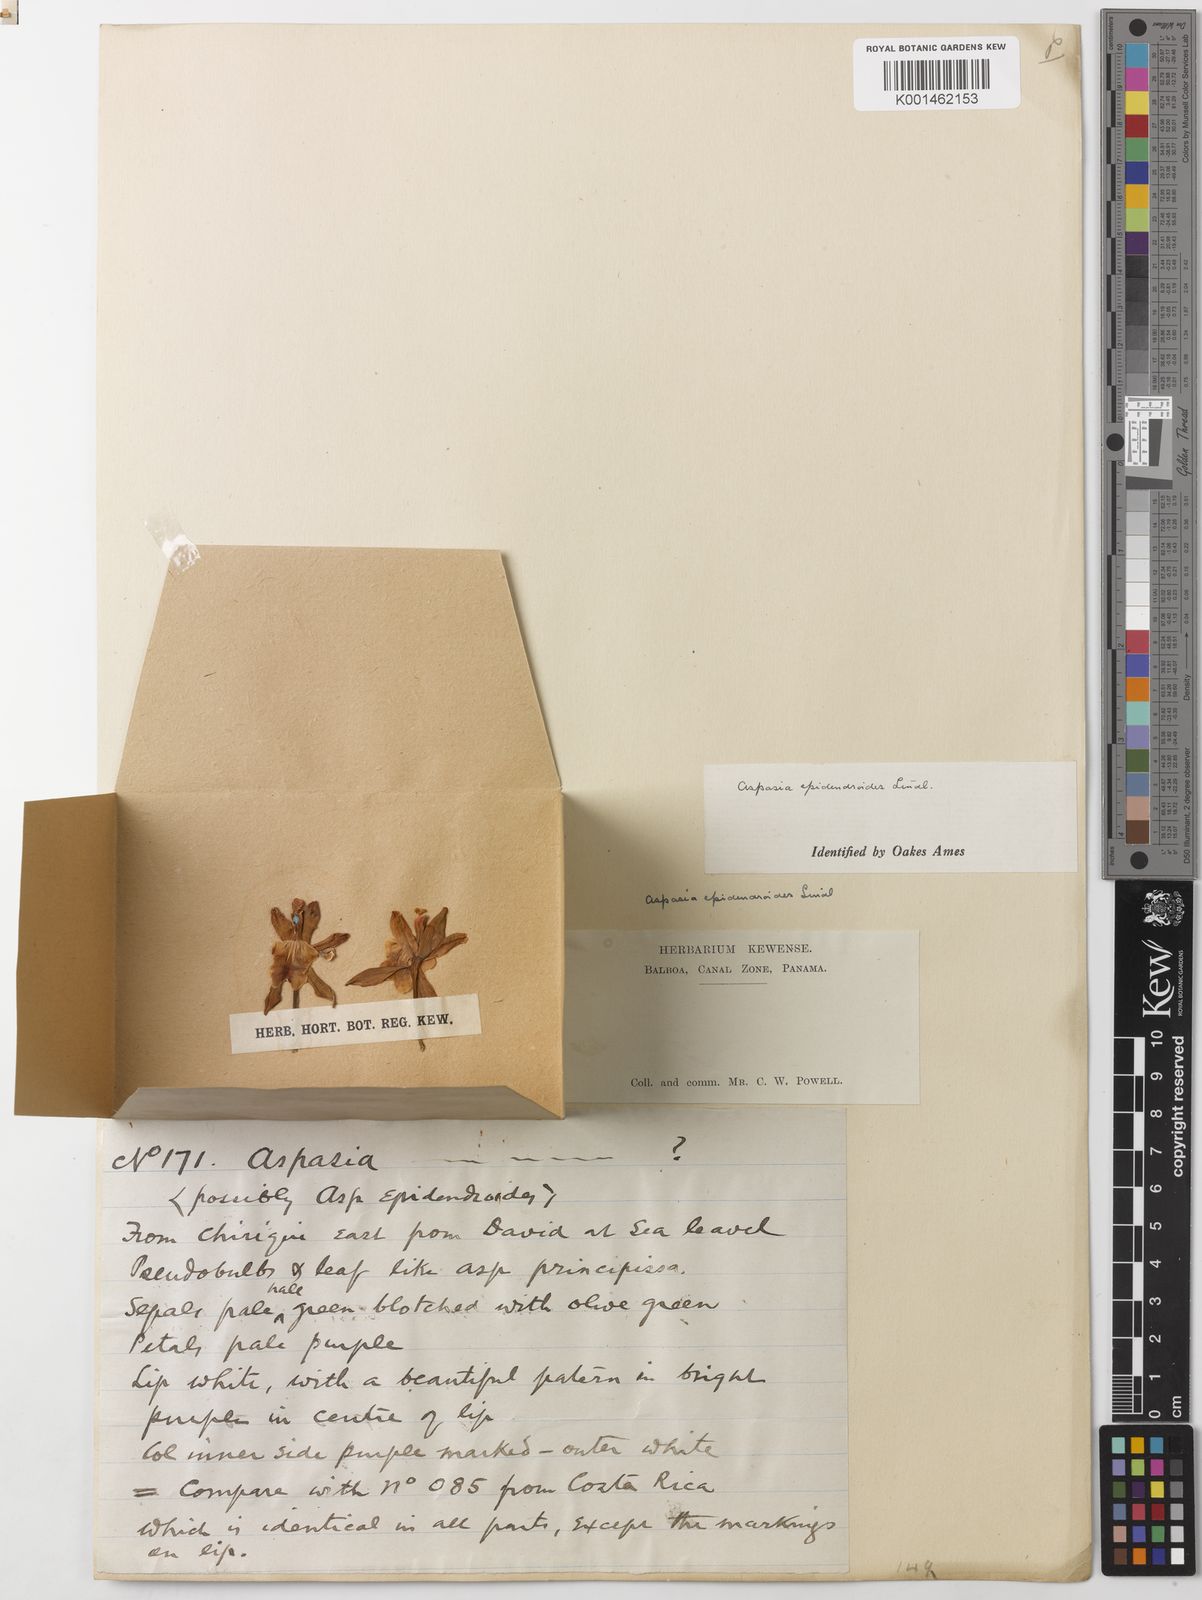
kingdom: Plantae
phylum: Tracheophyta
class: Liliopsida
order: Asparagales
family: Orchidaceae
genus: Aspasia
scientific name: Aspasia epidendroides
